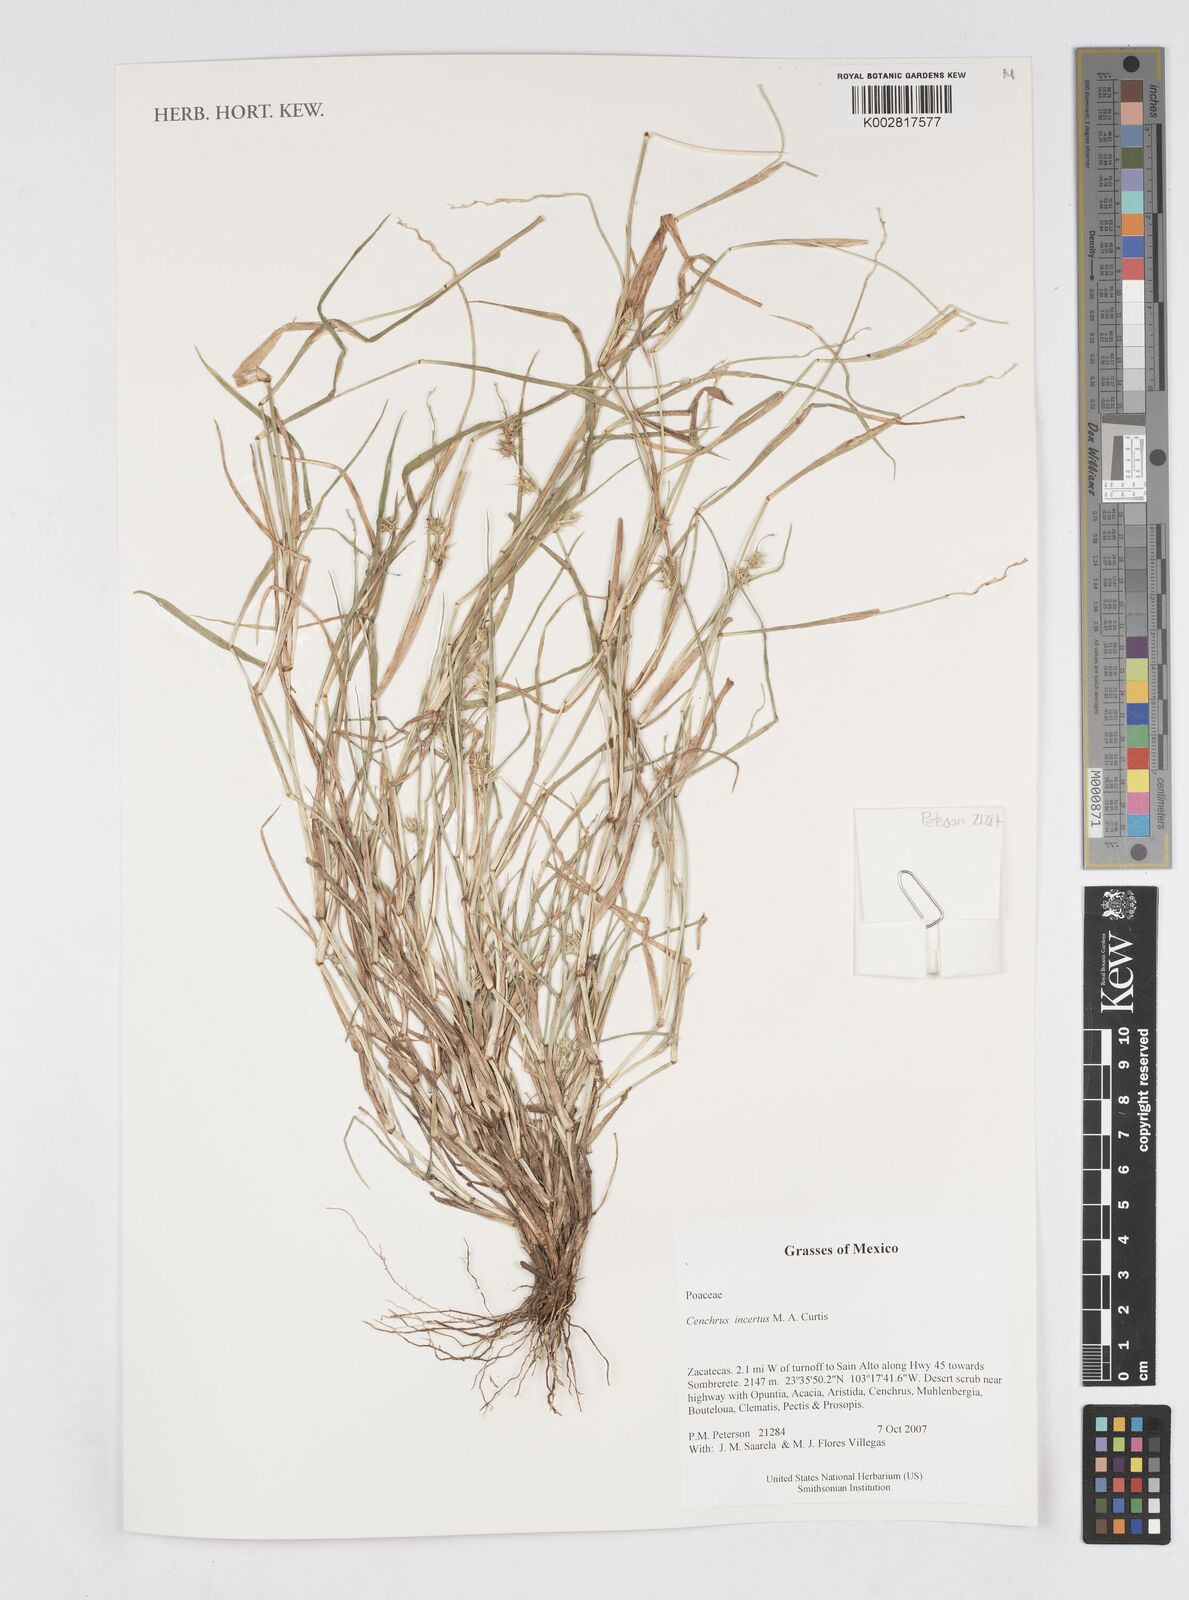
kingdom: Plantae
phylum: Tracheophyta
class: Liliopsida
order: Poales
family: Poaceae
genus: Cenchrus
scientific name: Cenchrus spinifex
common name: Coast sandbur
